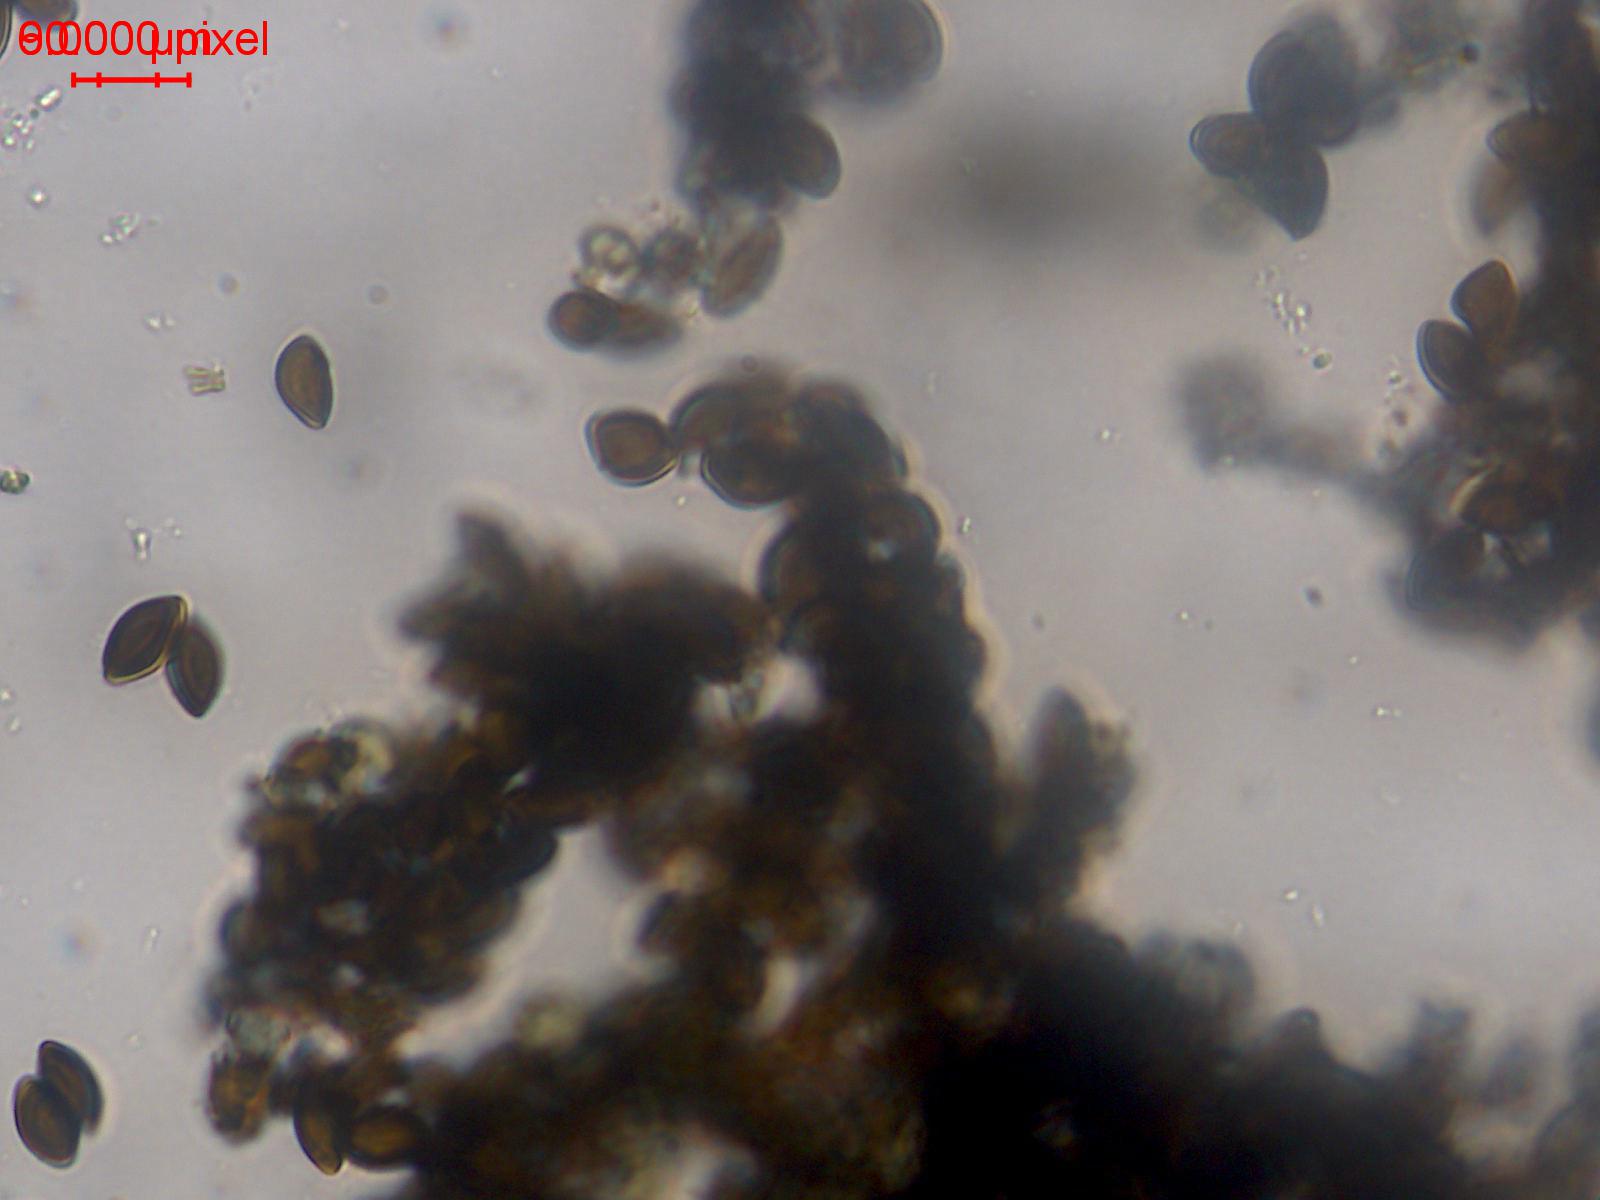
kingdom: Fungi
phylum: Ascomycota
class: Sordariomycetes
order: Xylariales
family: Apiosporaceae
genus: Arthrinium
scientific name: Arthrinium sporophleum
